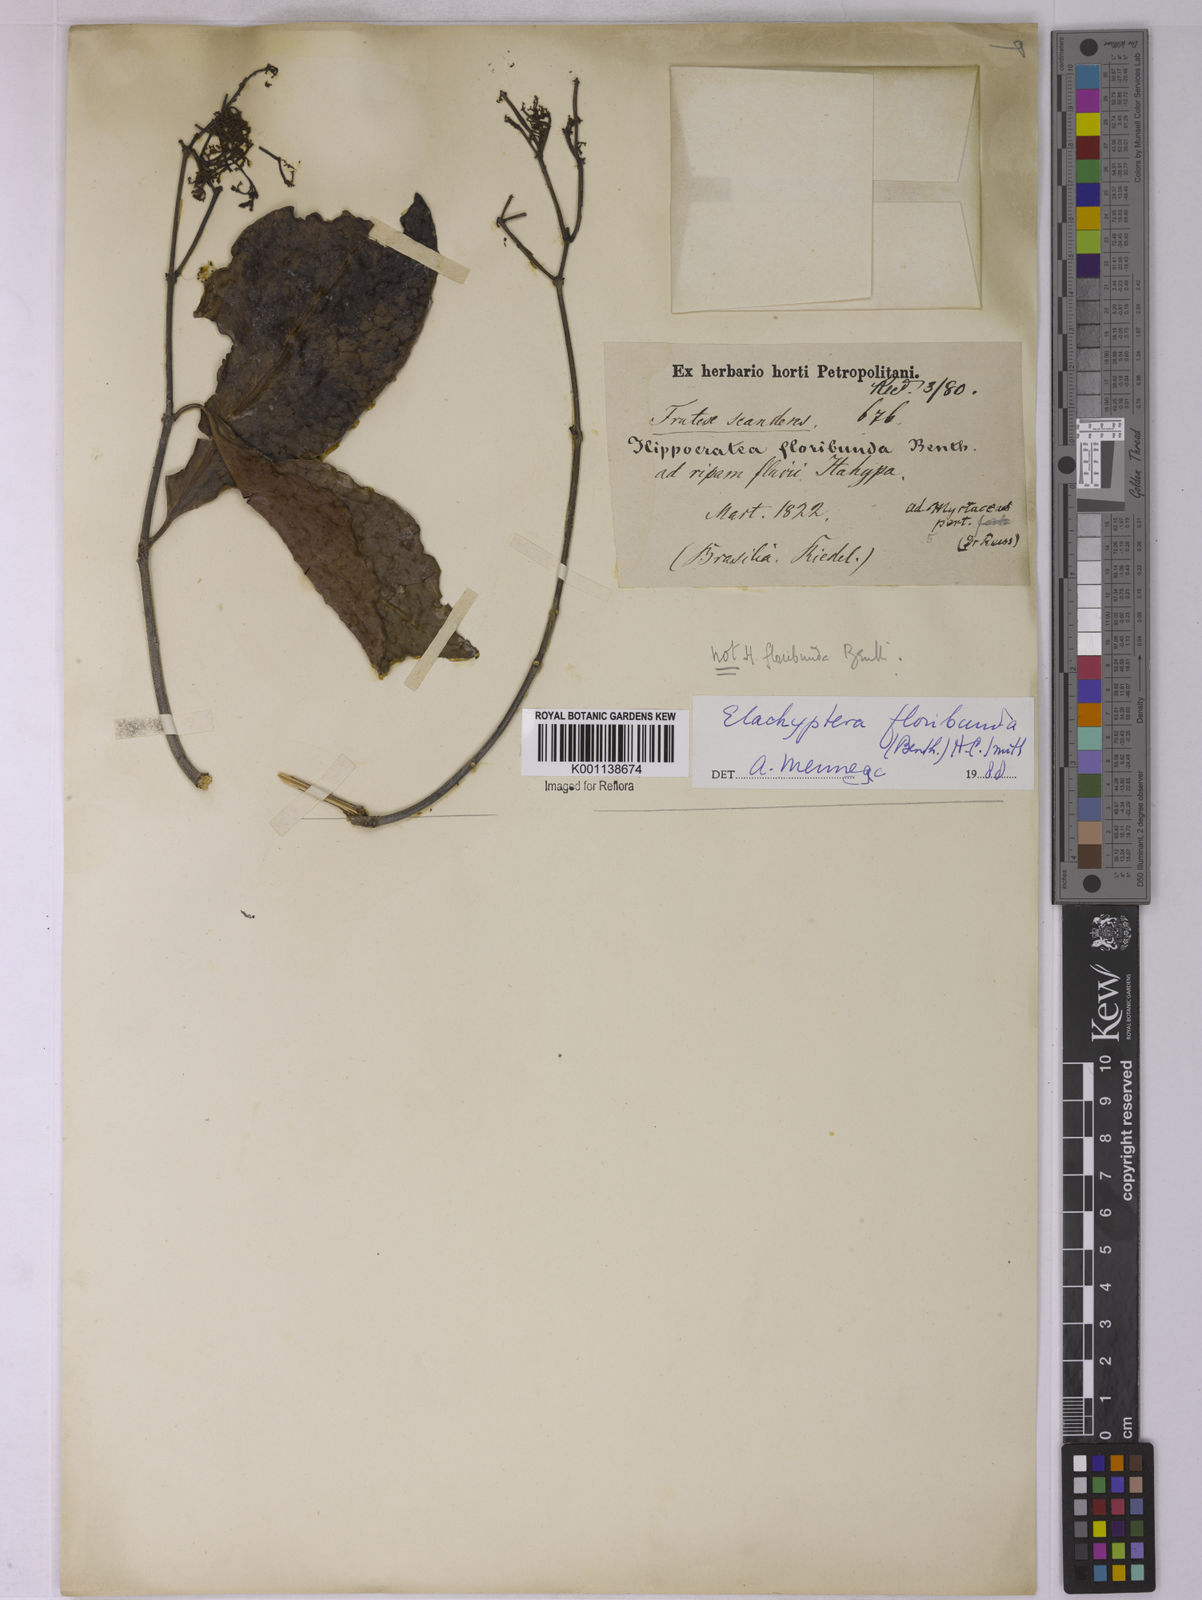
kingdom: Plantae
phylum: Tracheophyta
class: Magnoliopsida
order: Celastrales
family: Celastraceae
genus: Elachyptera
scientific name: Elachyptera floribunda
